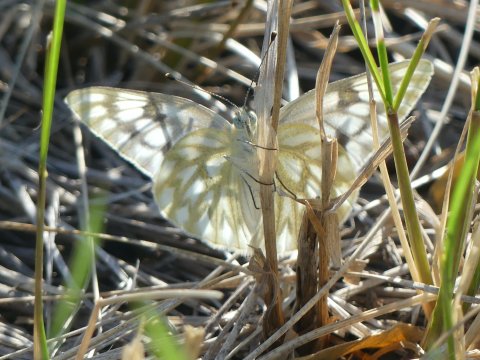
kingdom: Animalia
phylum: Arthropoda
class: Insecta
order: Lepidoptera
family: Pieridae
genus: Pontia
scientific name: Pontia occidentalis
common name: Western White
